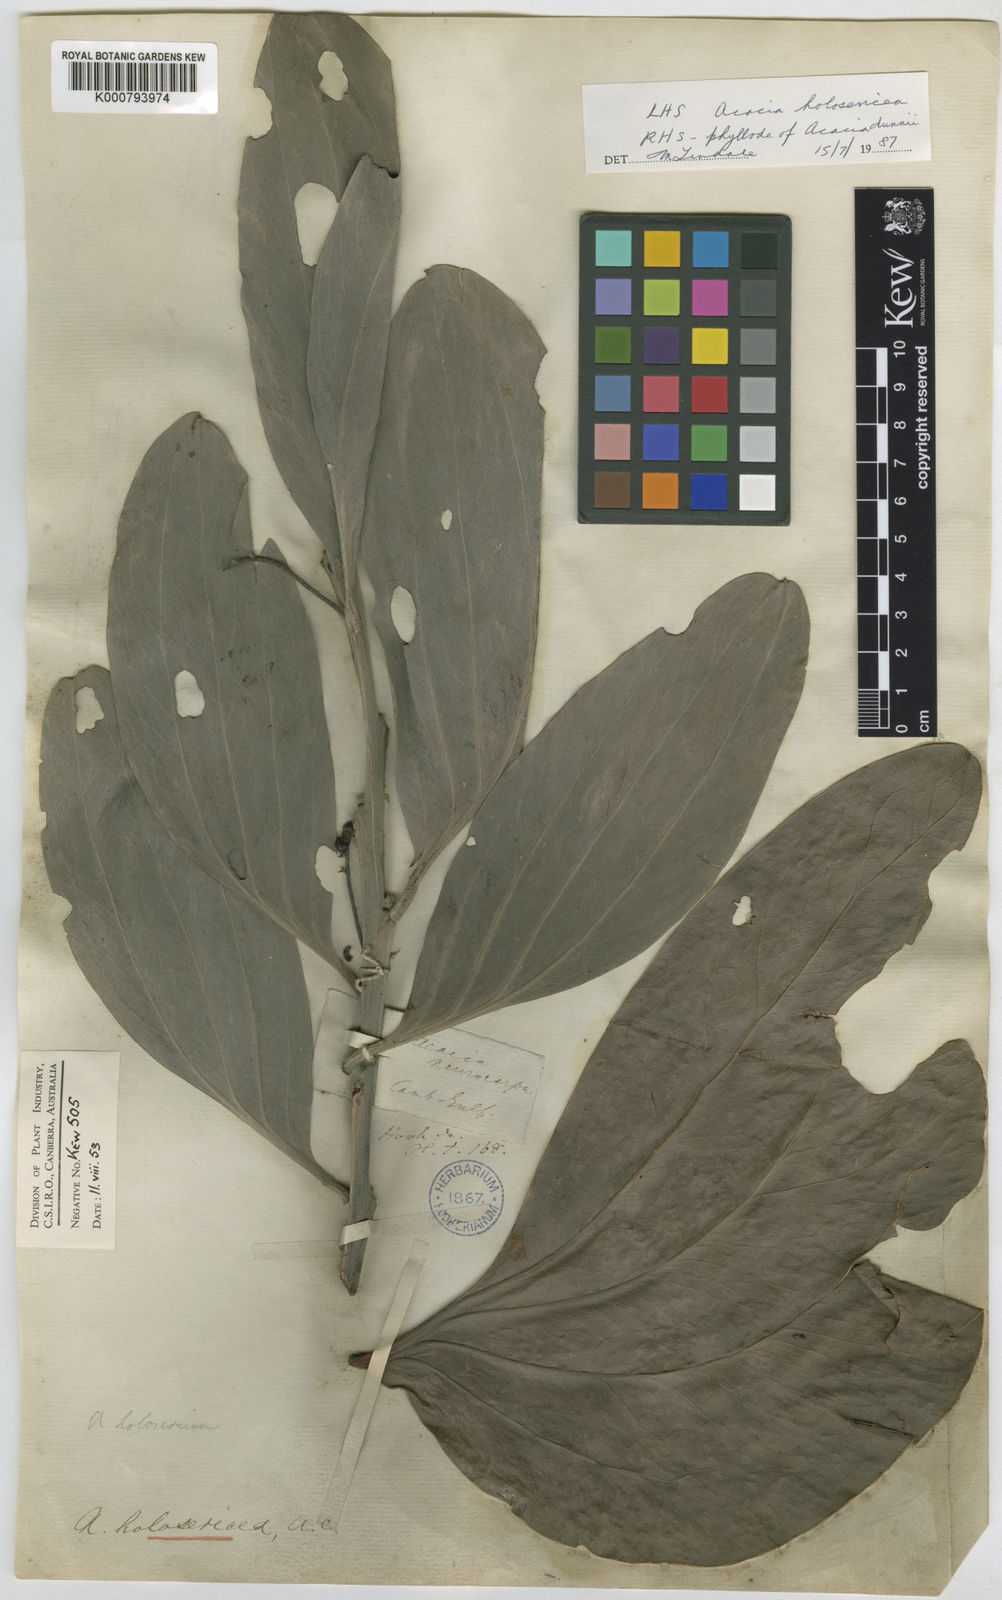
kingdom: Plantae
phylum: Tracheophyta
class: Magnoliopsida
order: Fabales
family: Fabaceae
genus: Acacia
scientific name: Acacia holosericea
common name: Candelabra wattle
